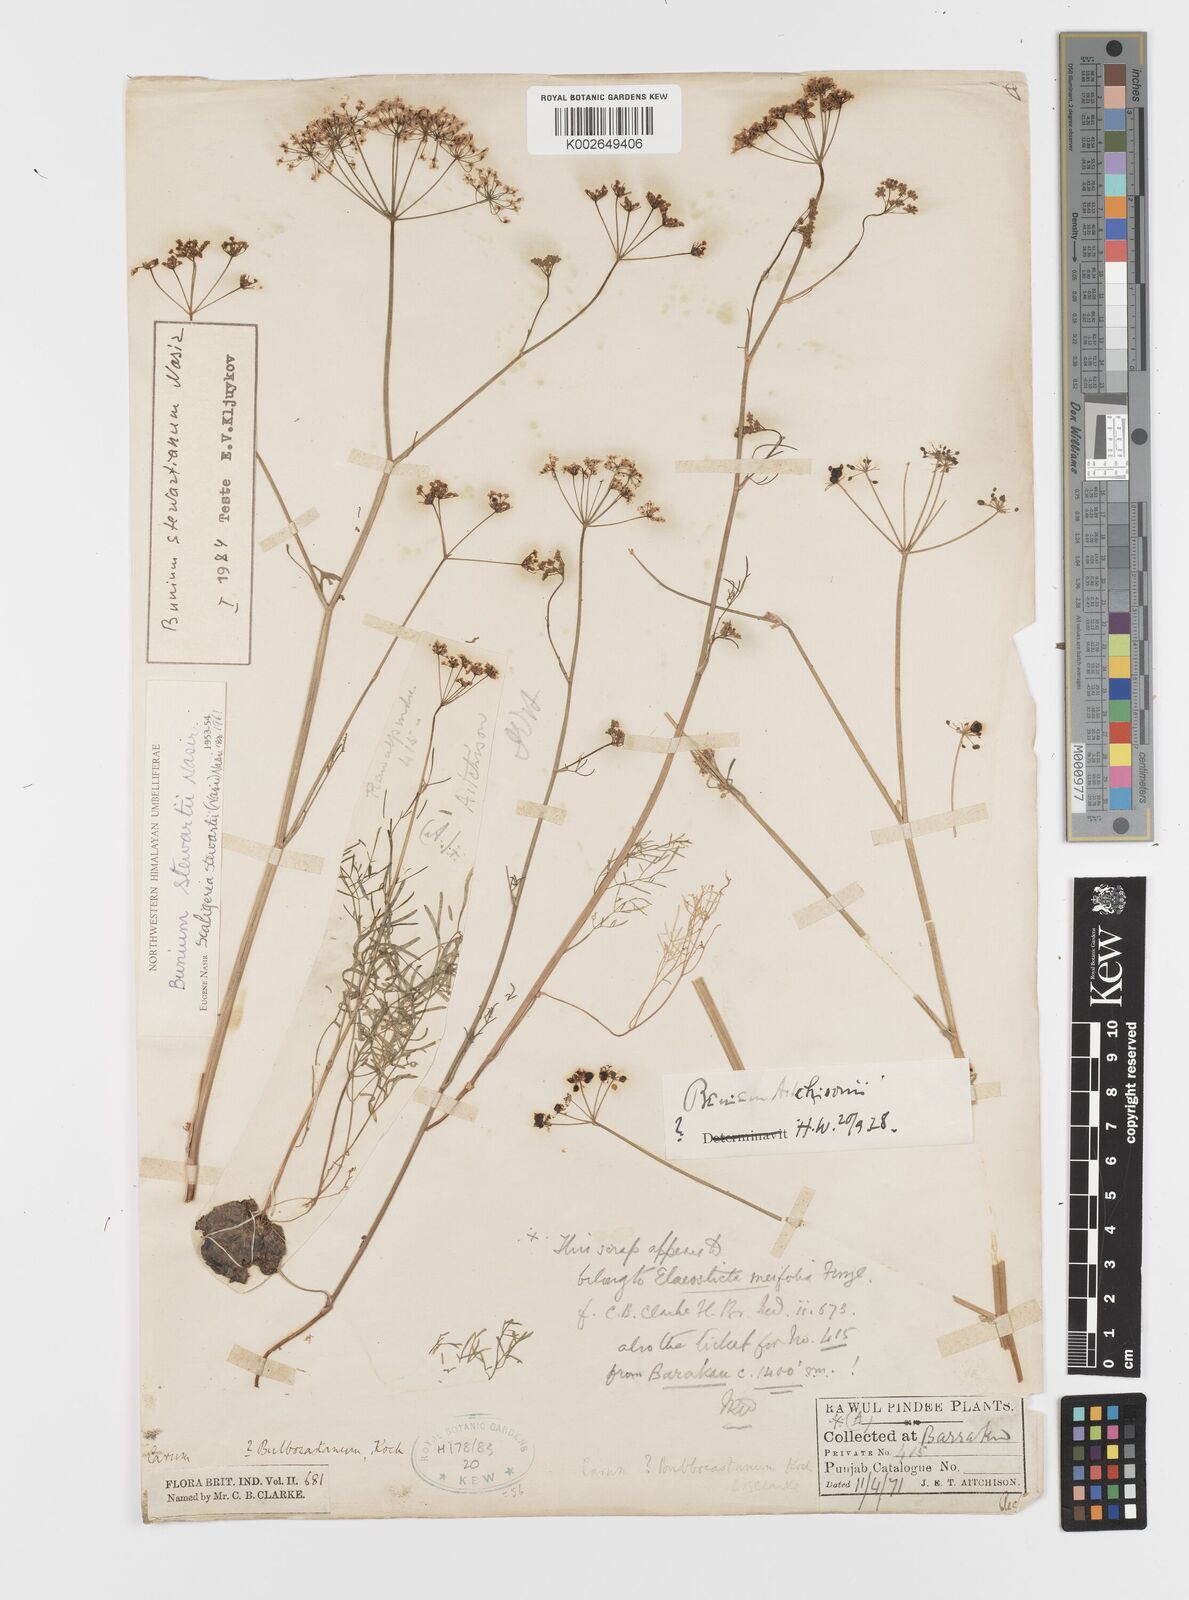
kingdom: Plantae
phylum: Tracheophyta
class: Magnoliopsida
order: Apiales
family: Apiaceae
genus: Elwendia
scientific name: Elwendia stewartiana
